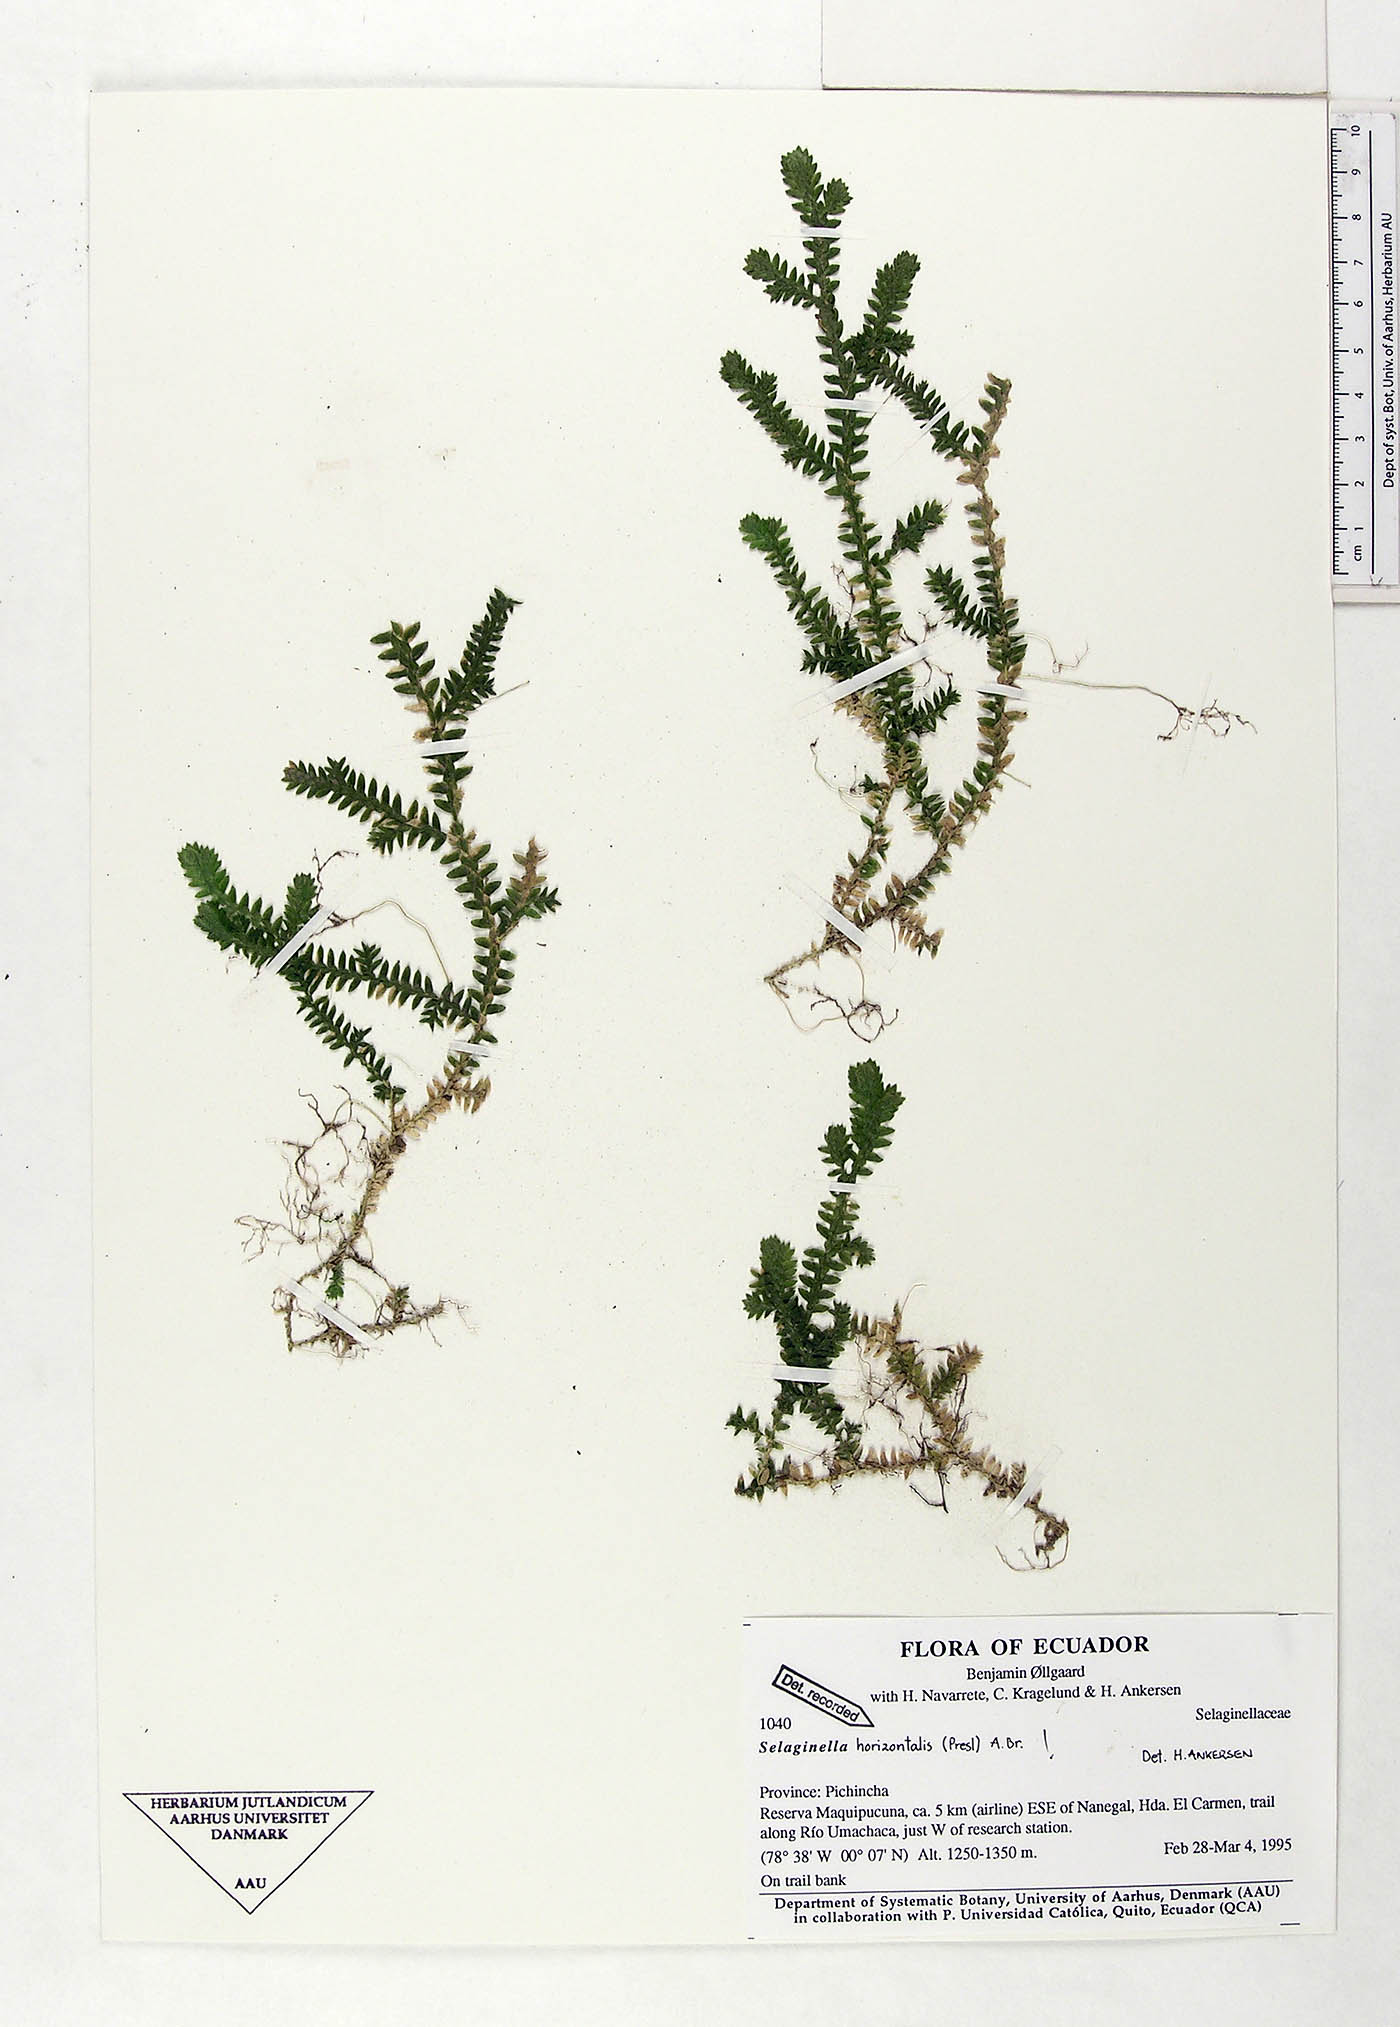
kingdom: Plantae
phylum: Tracheophyta
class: Lycopodiopsida
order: Selaginellales
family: Selaginellaceae
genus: Selaginella
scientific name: Selaginella horizontalis
